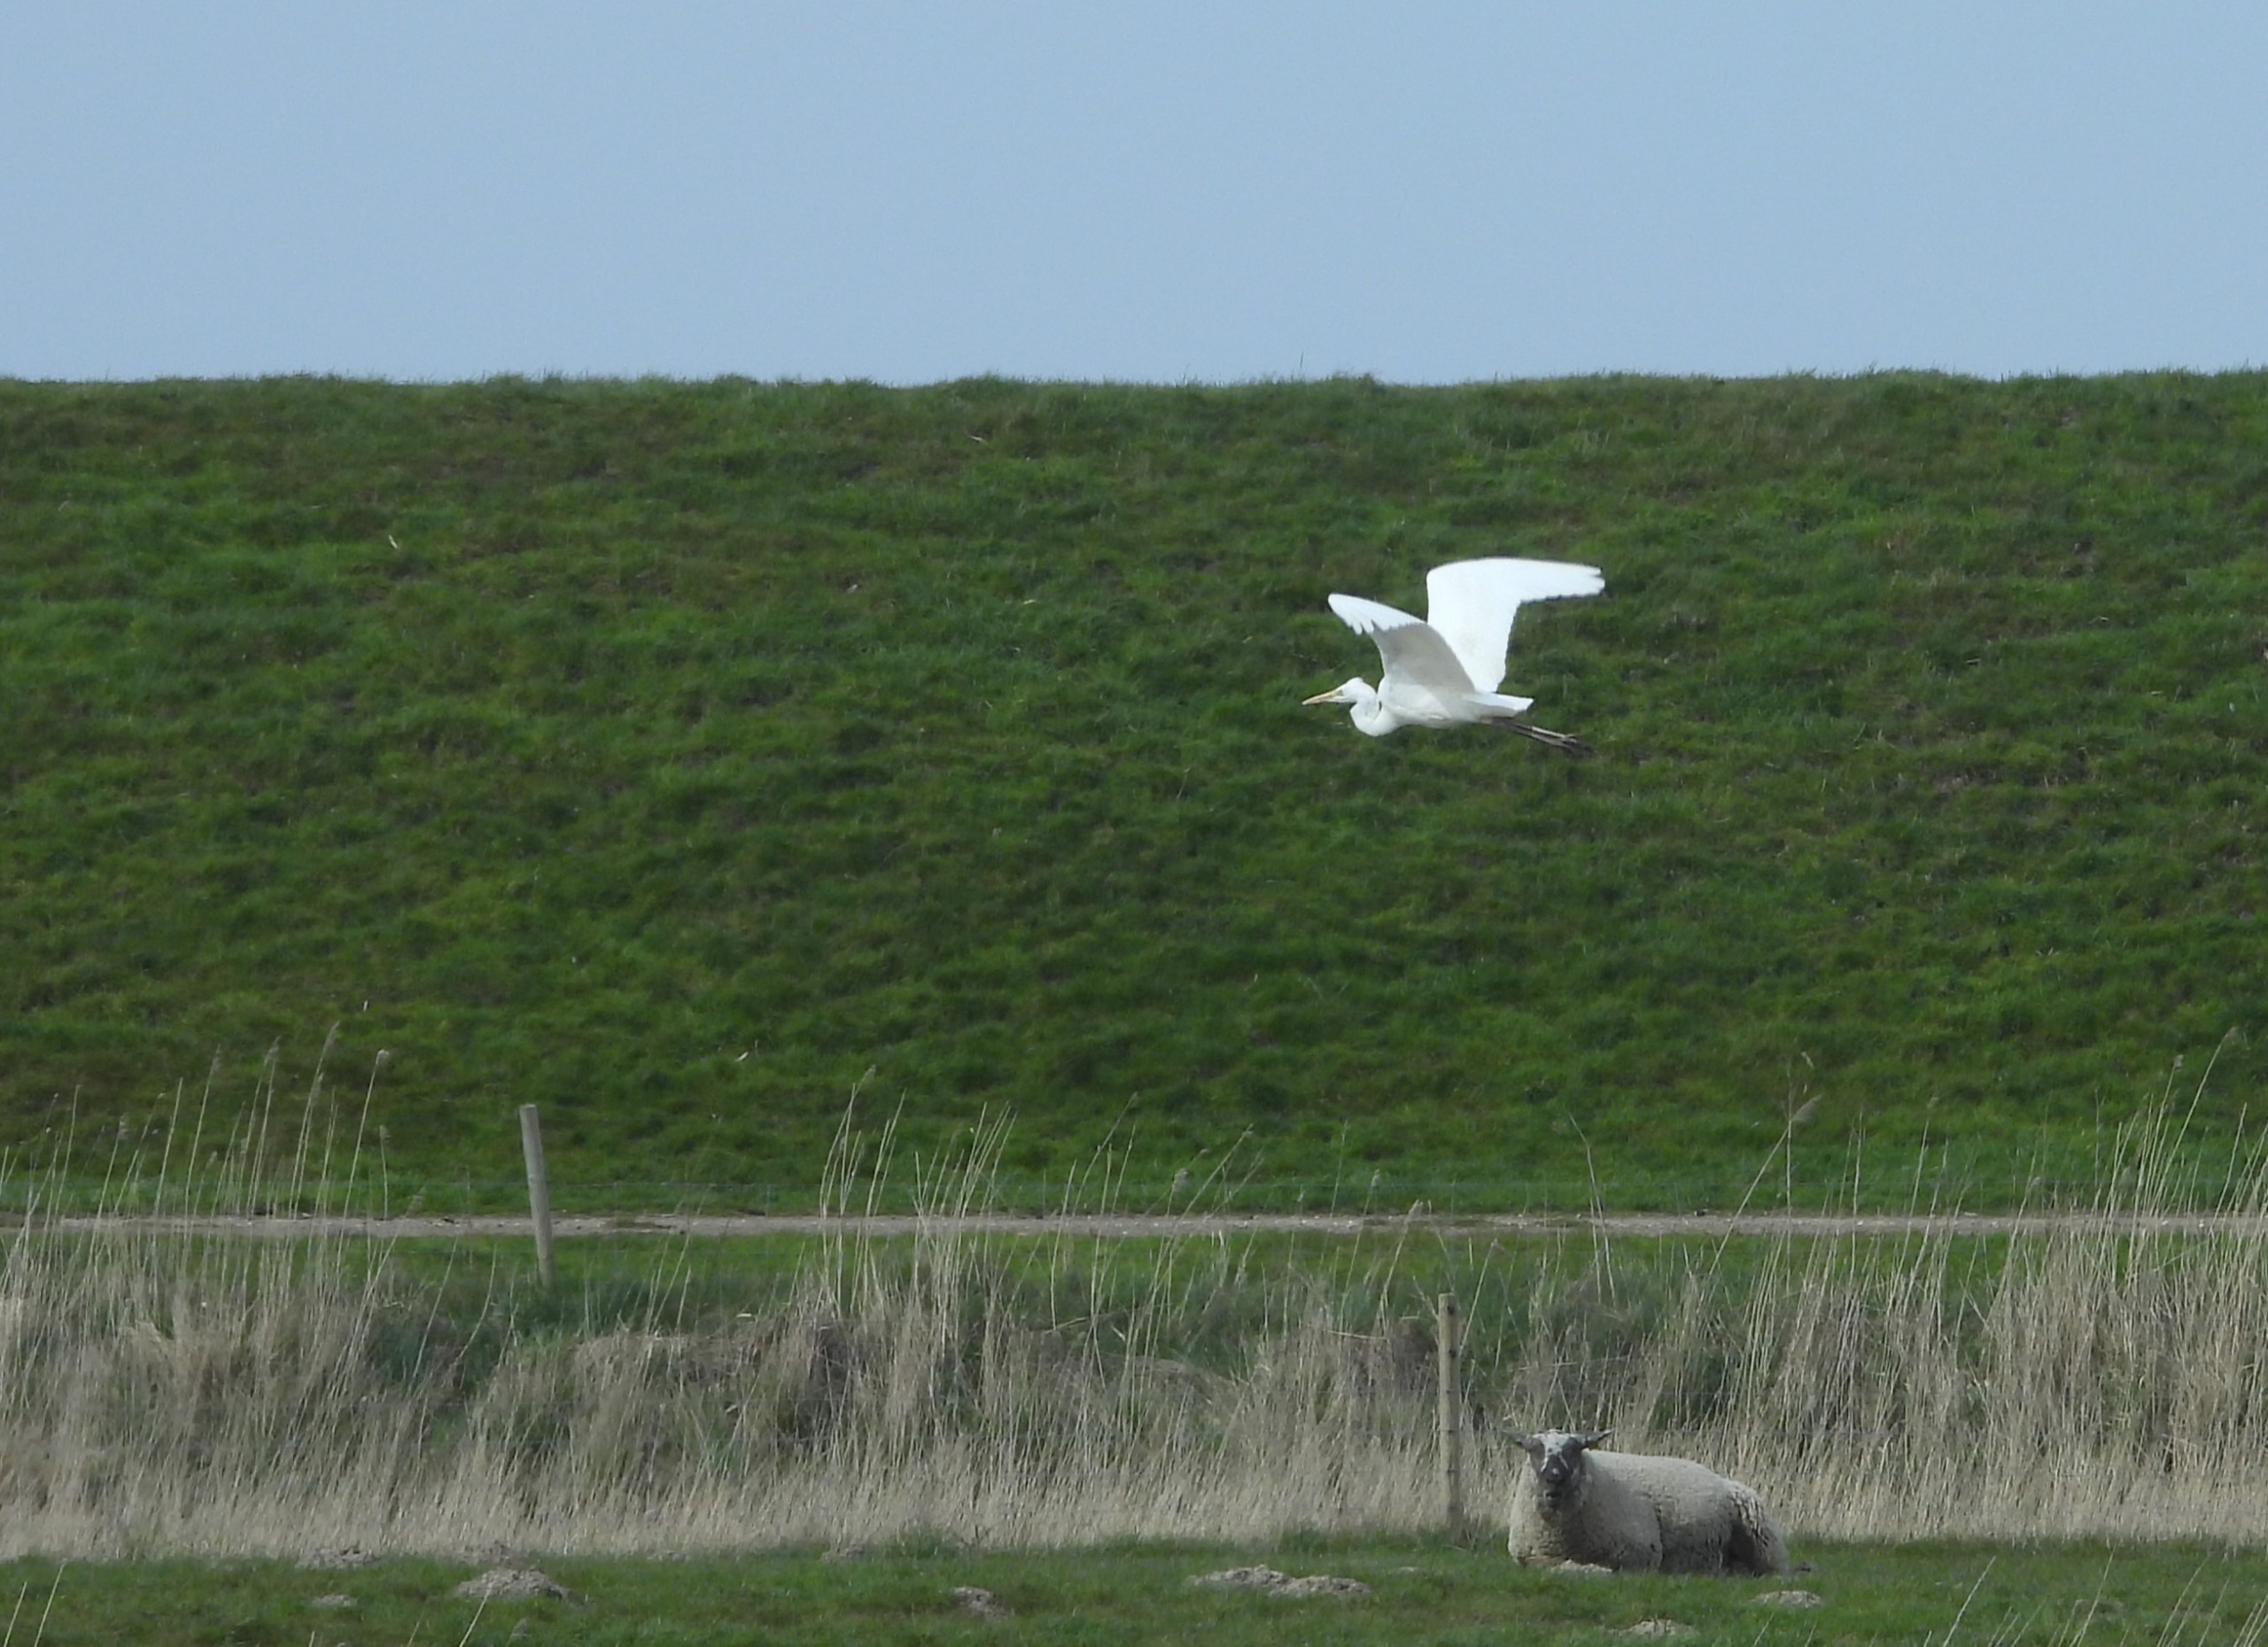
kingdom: Animalia
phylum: Chordata
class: Aves
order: Pelecaniformes
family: Ardeidae
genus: Ardea
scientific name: Ardea alba
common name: Sølvhejre
